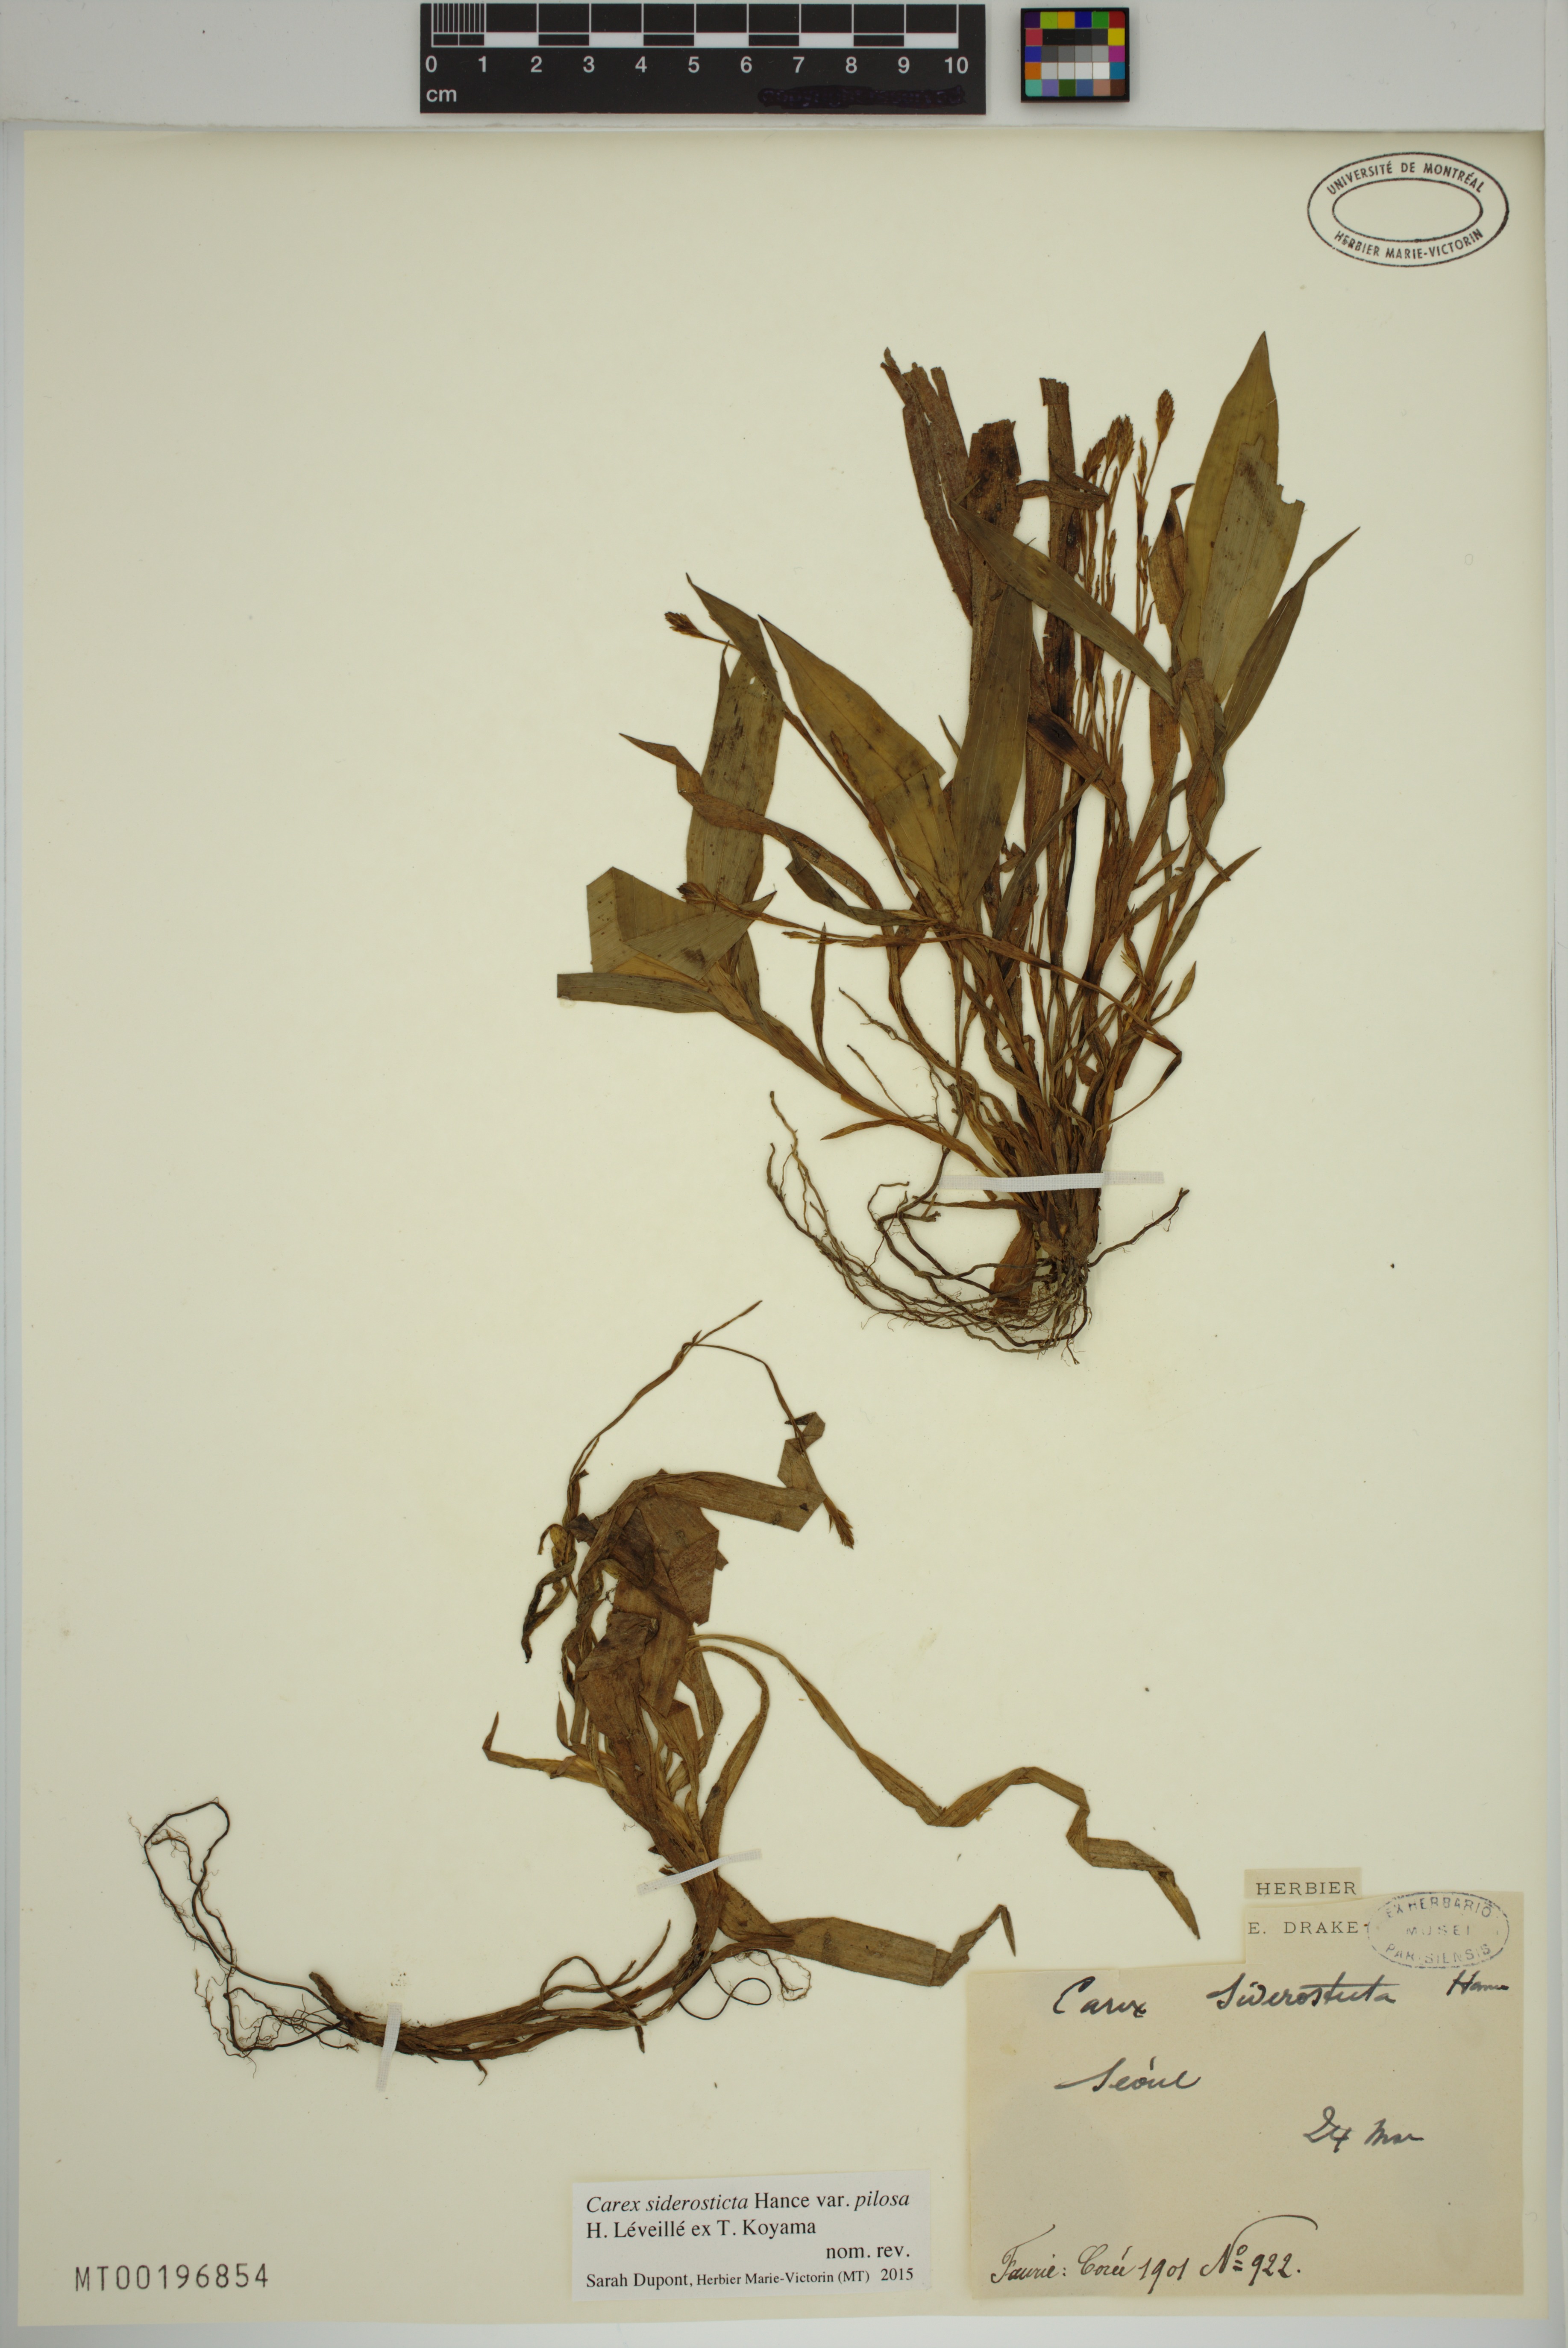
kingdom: Plantae
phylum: Tracheophyta
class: Liliopsida
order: Poales
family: Cyperaceae
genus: Carex
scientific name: Carex siderosticta
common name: Broadleaf sedge
